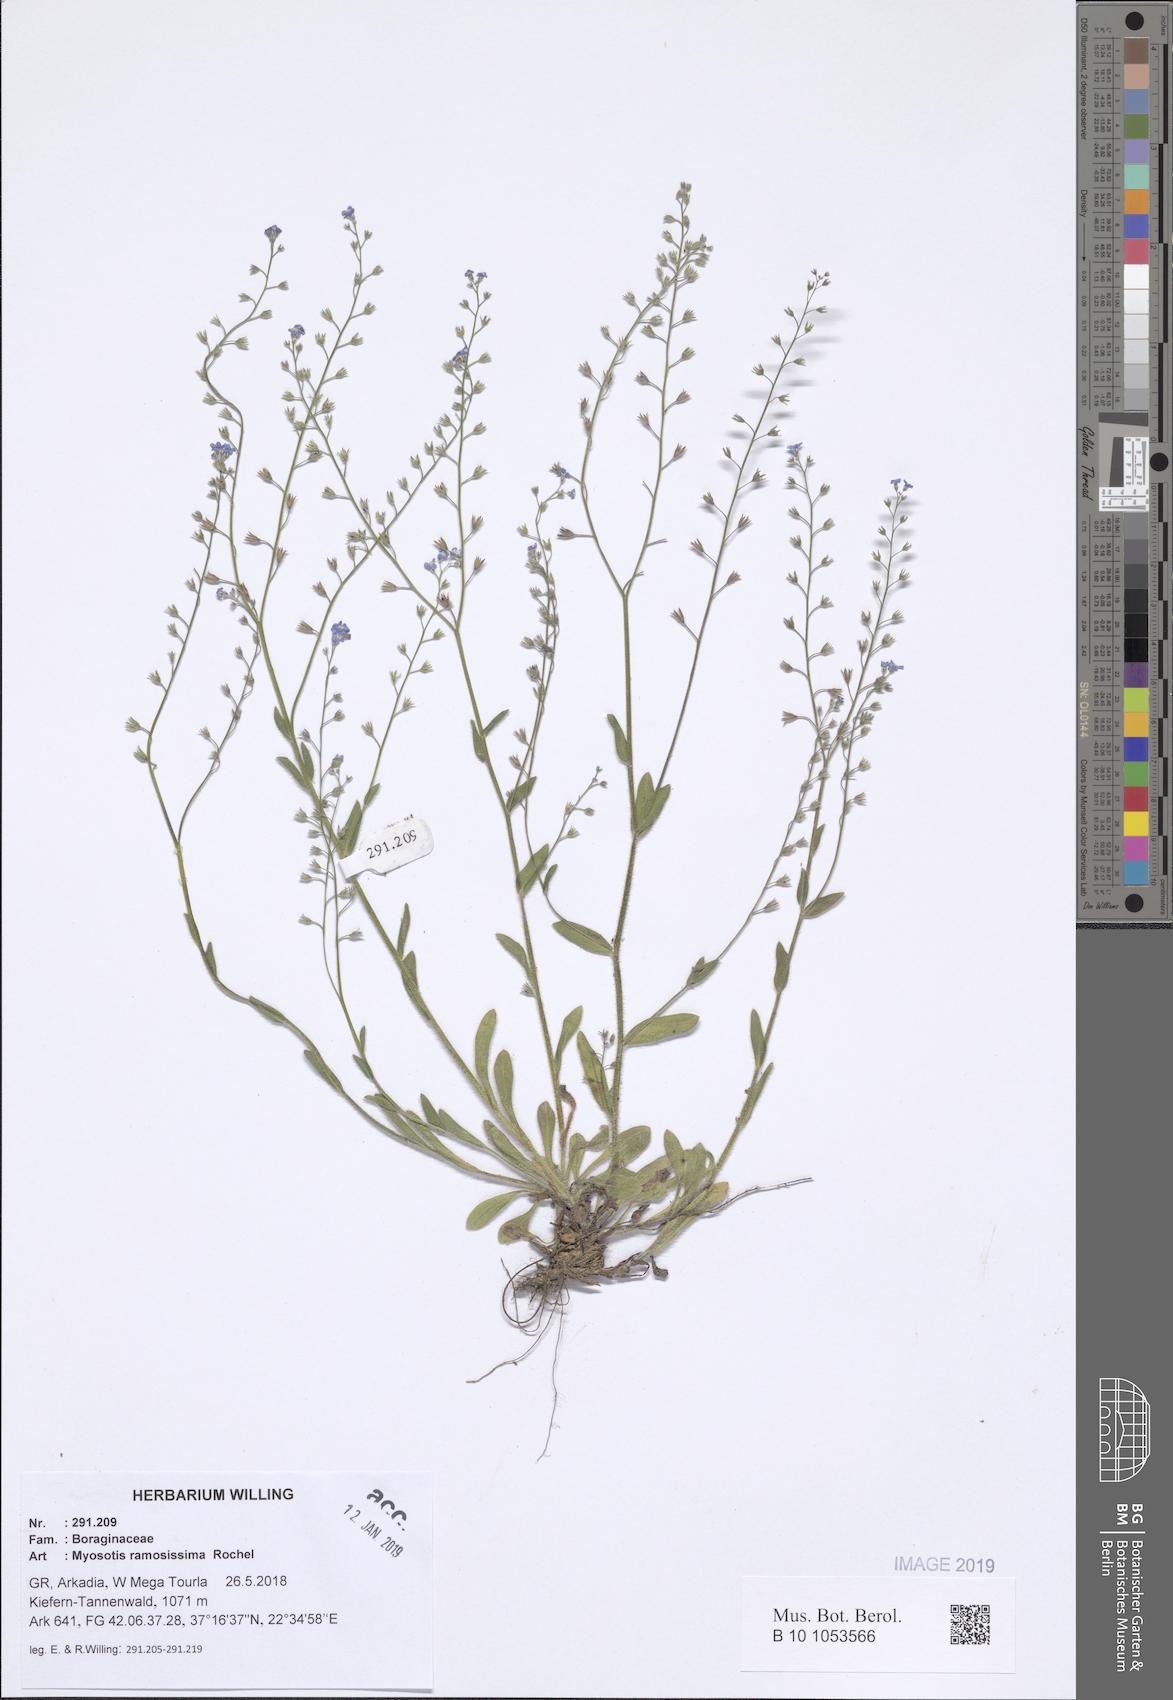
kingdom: Plantae
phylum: Tracheophyta
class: Magnoliopsida
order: Boraginales
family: Boraginaceae
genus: Myosotis
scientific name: Myosotis ramosissima
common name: Early forget-me-not
